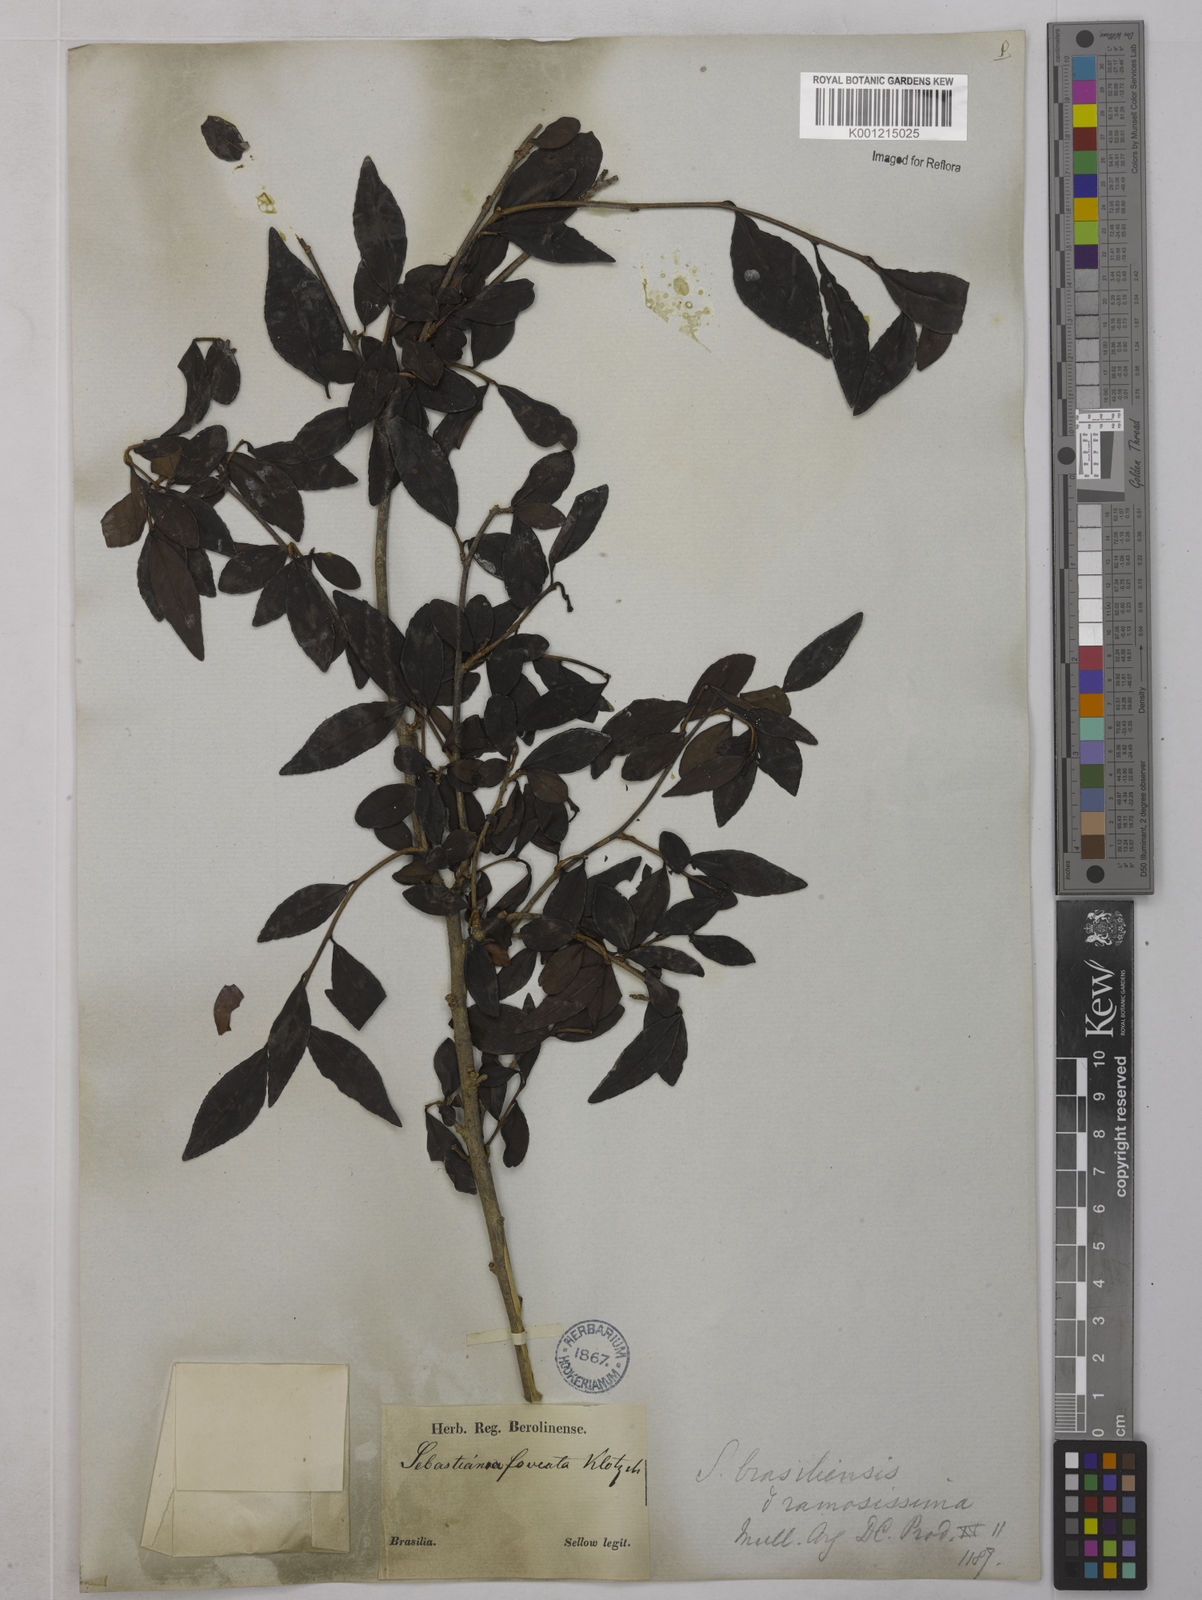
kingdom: Plantae
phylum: Tracheophyta
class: Magnoliopsida
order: Malpighiales
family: Euphorbiaceae
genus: Sebastiania
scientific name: Sebastiania brasiliensis
